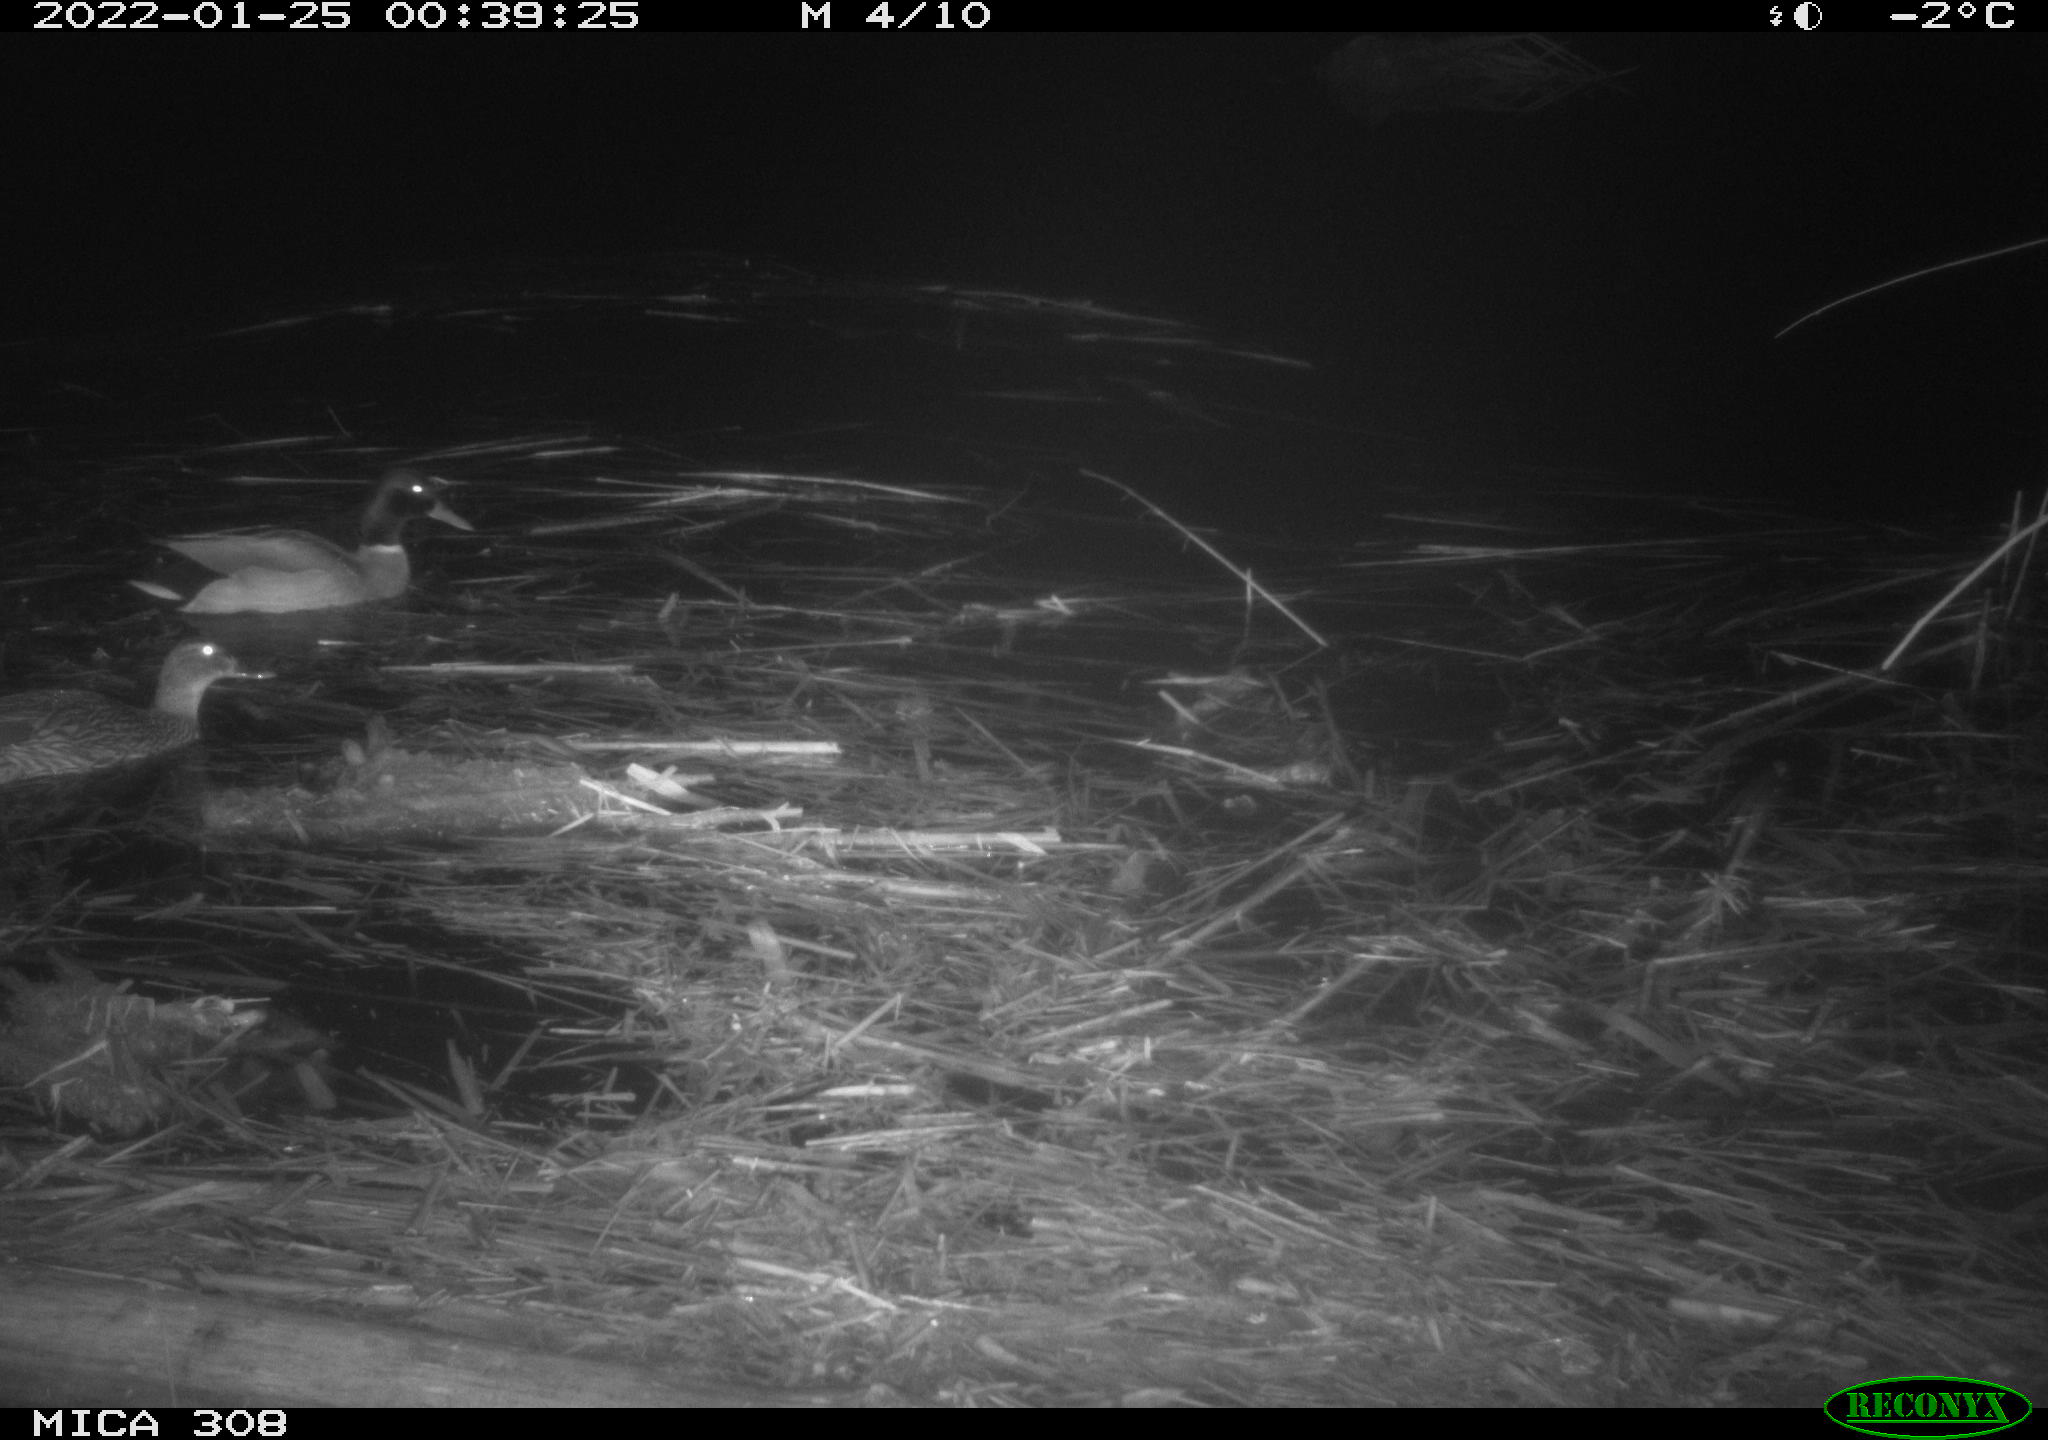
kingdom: Animalia
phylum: Chordata
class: Aves
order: Anseriformes
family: Anatidae
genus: Anas
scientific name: Anas
